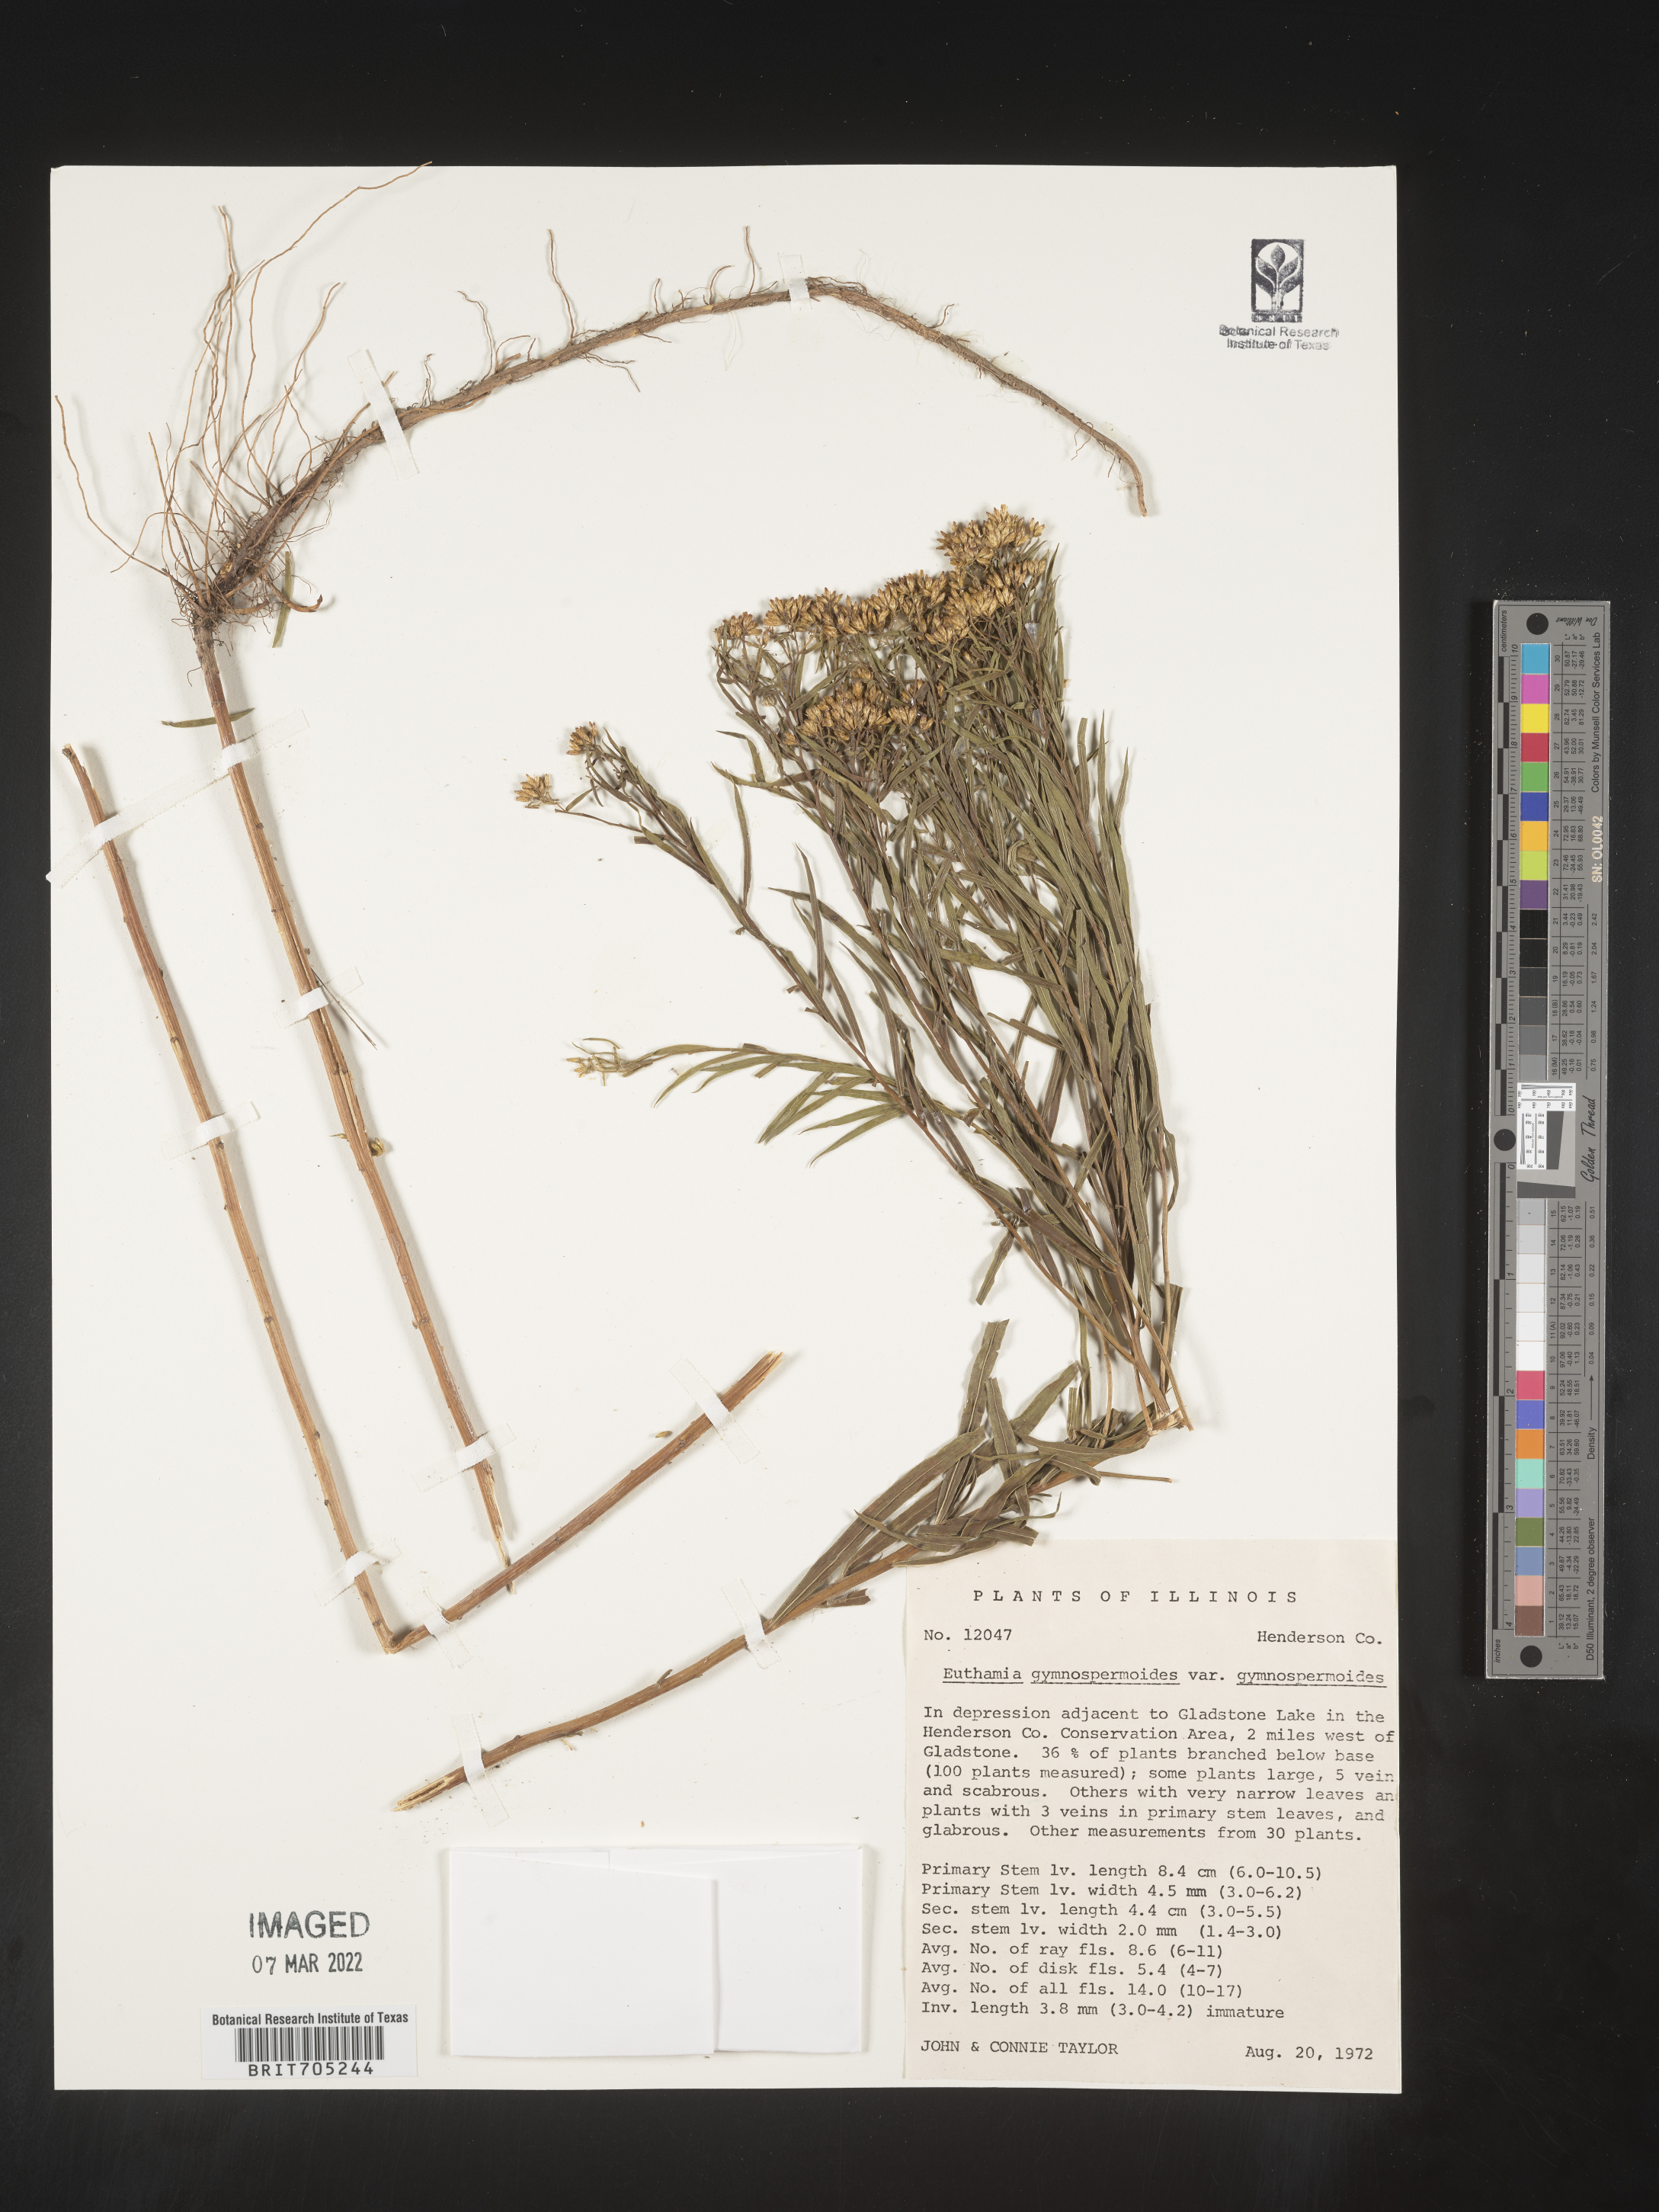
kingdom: Plantae
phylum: Tracheophyta
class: Magnoliopsida
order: Asterales
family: Asteraceae
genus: Euthamia
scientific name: Euthamia gymnospermoides
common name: Great plains goldentop
